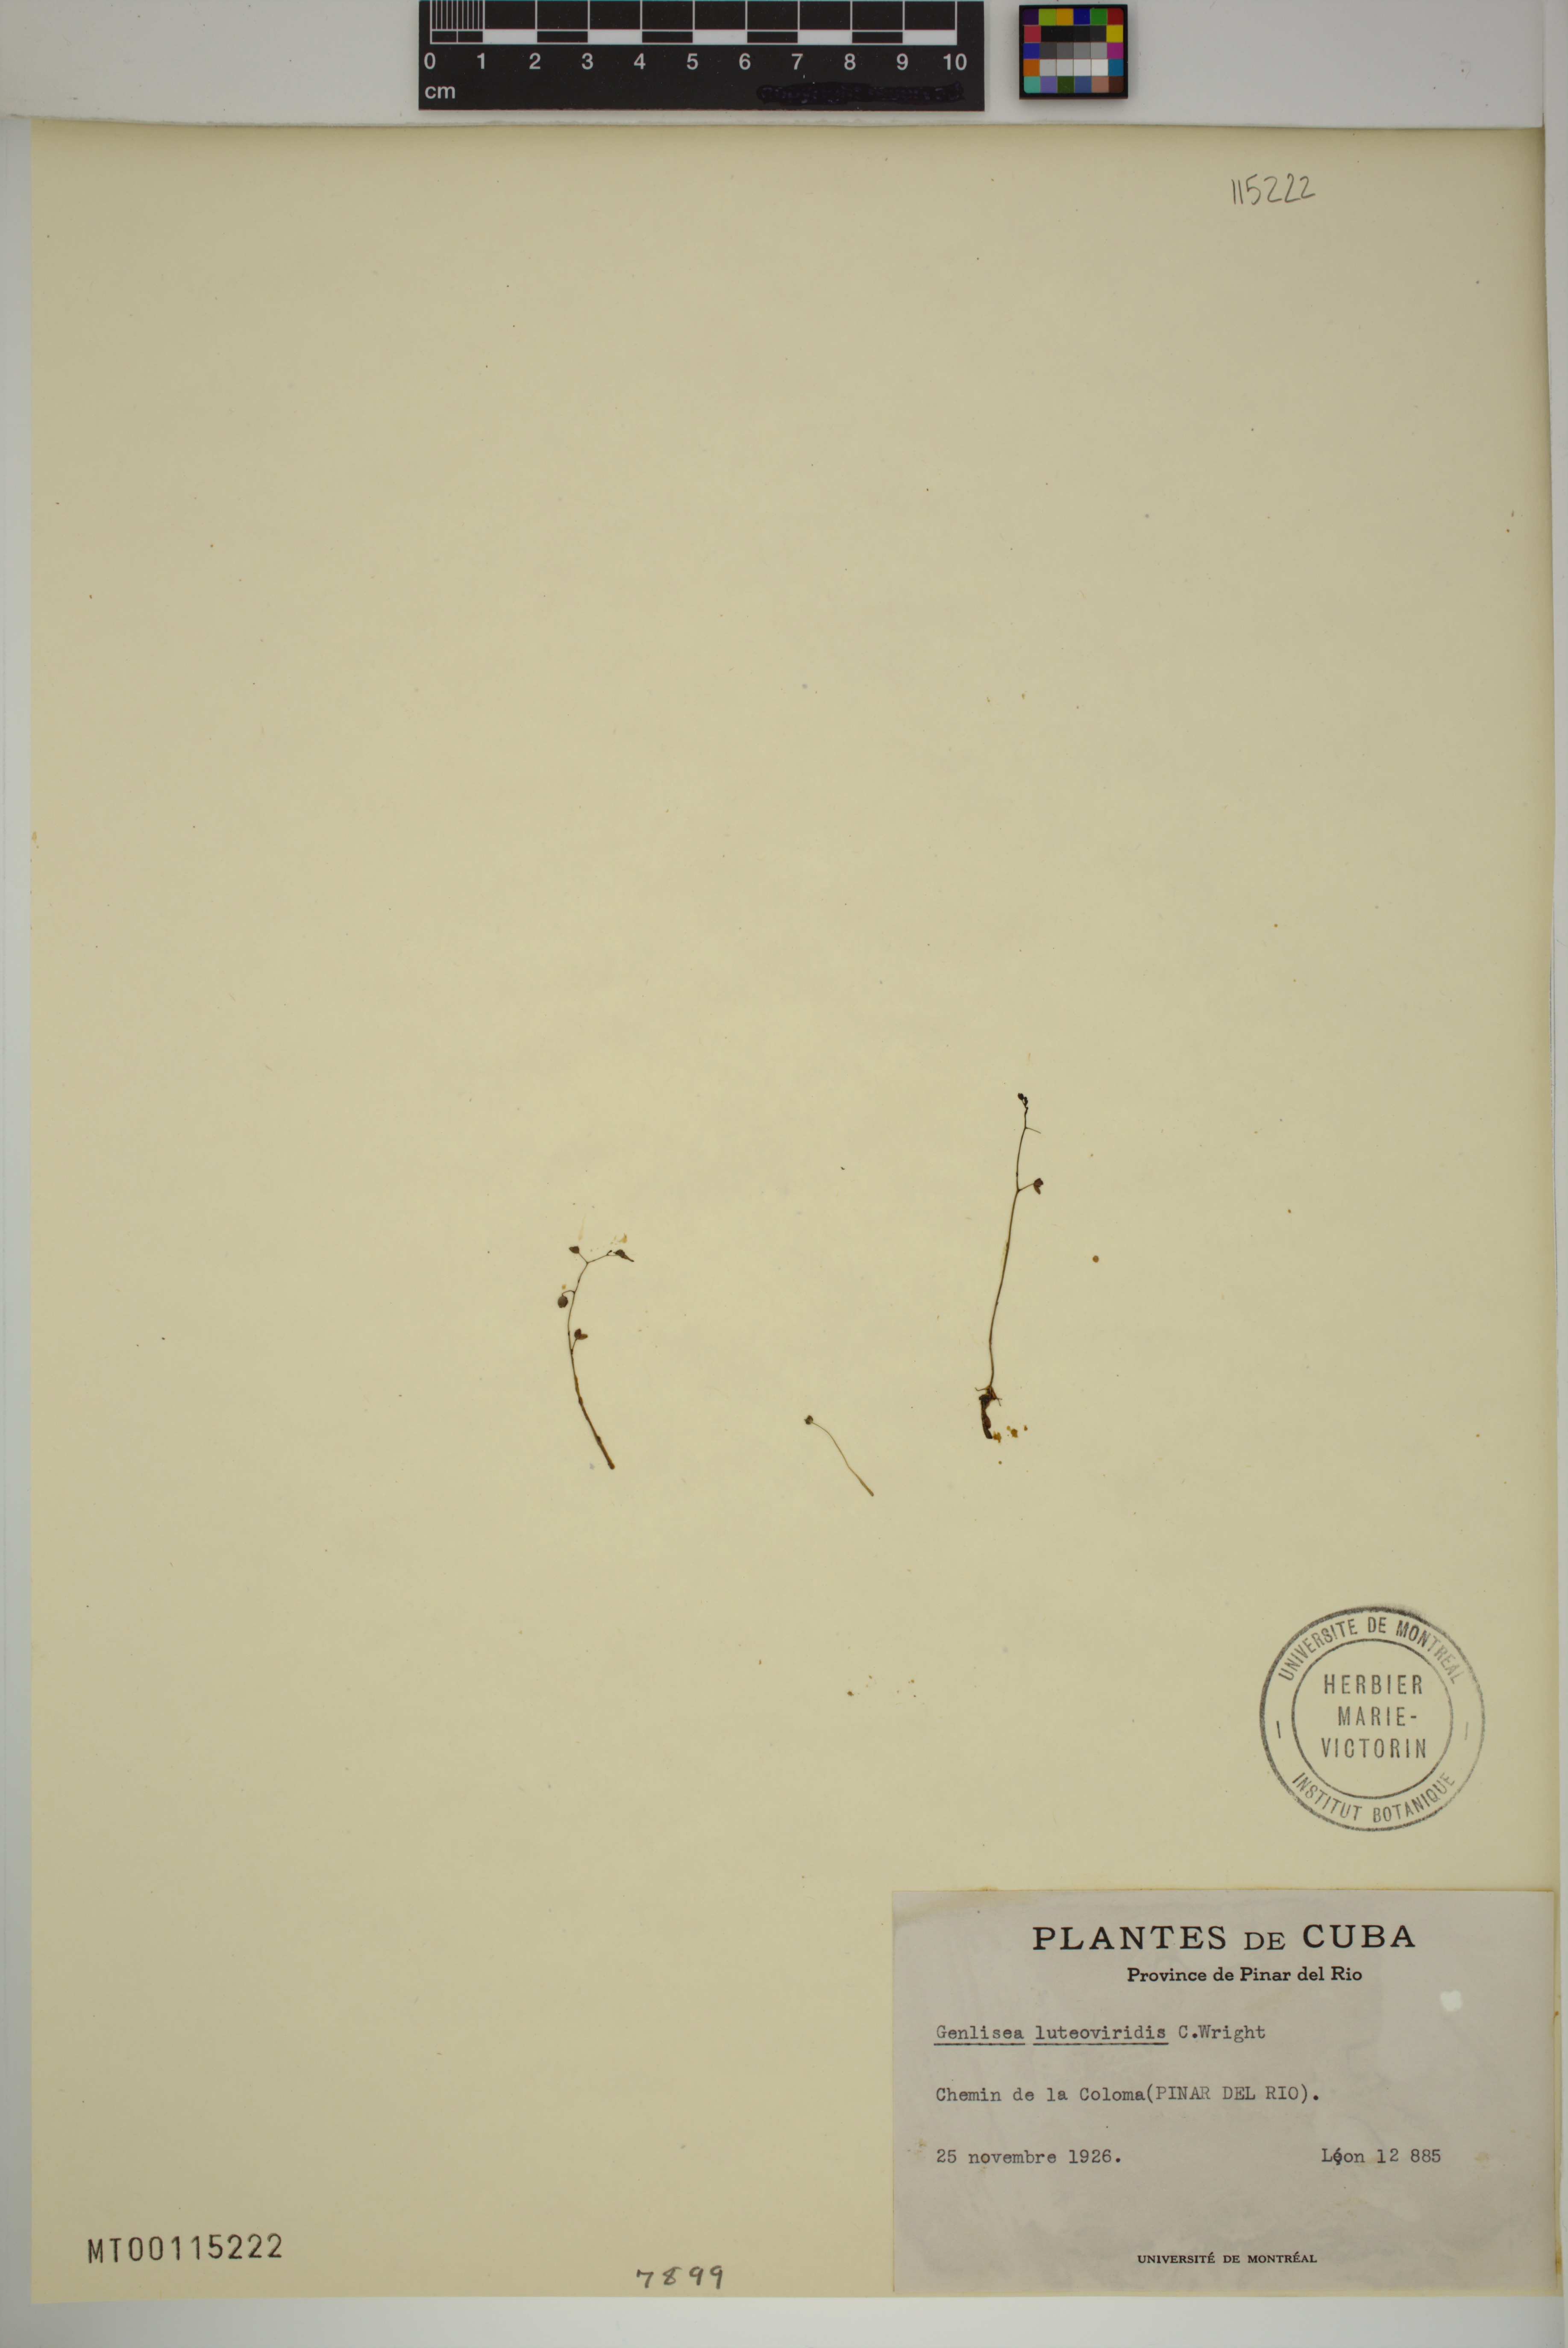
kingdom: Plantae
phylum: Tracheophyta
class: Magnoliopsida
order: Lamiales
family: Lentibulariaceae
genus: Genlisea
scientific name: Genlisea filiformis
